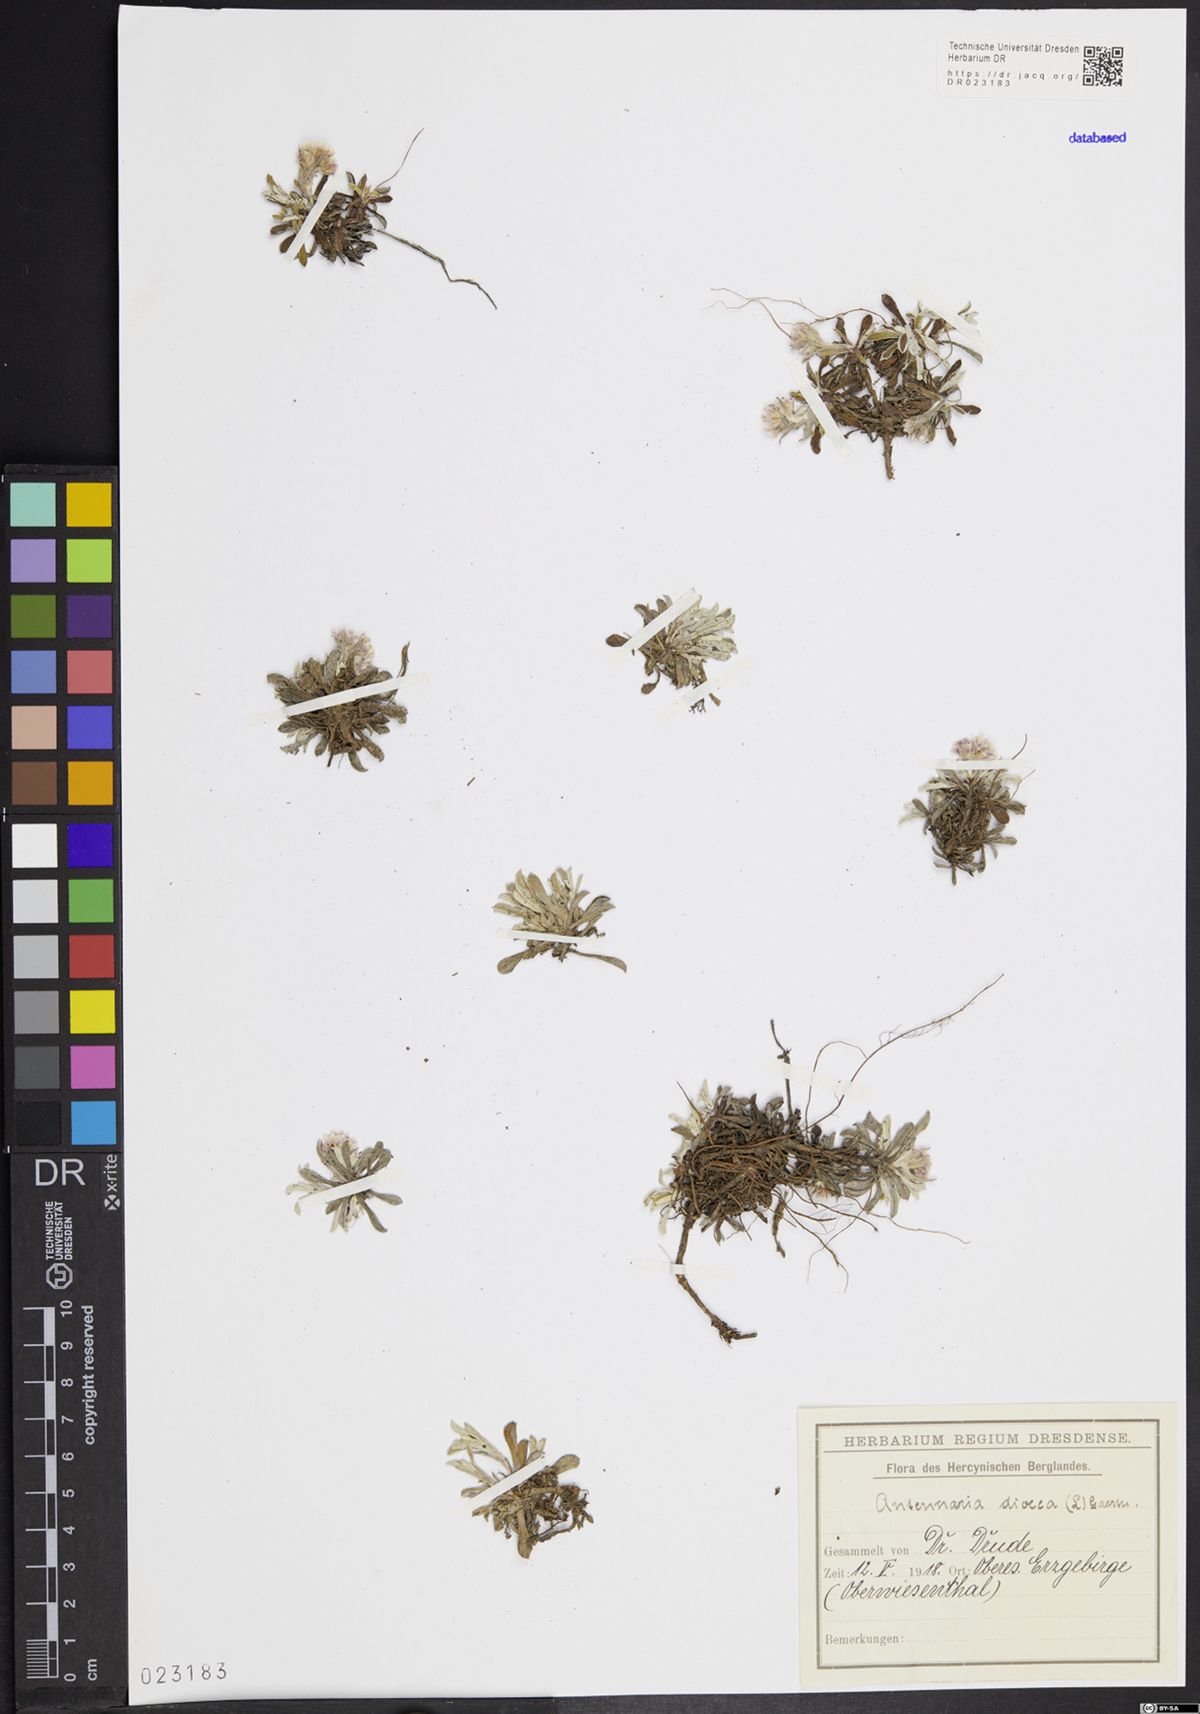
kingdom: Plantae
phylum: Tracheophyta
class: Magnoliopsida
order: Asterales
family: Asteraceae
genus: Antennaria
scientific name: Antennaria dioica
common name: Mountain everlasting
